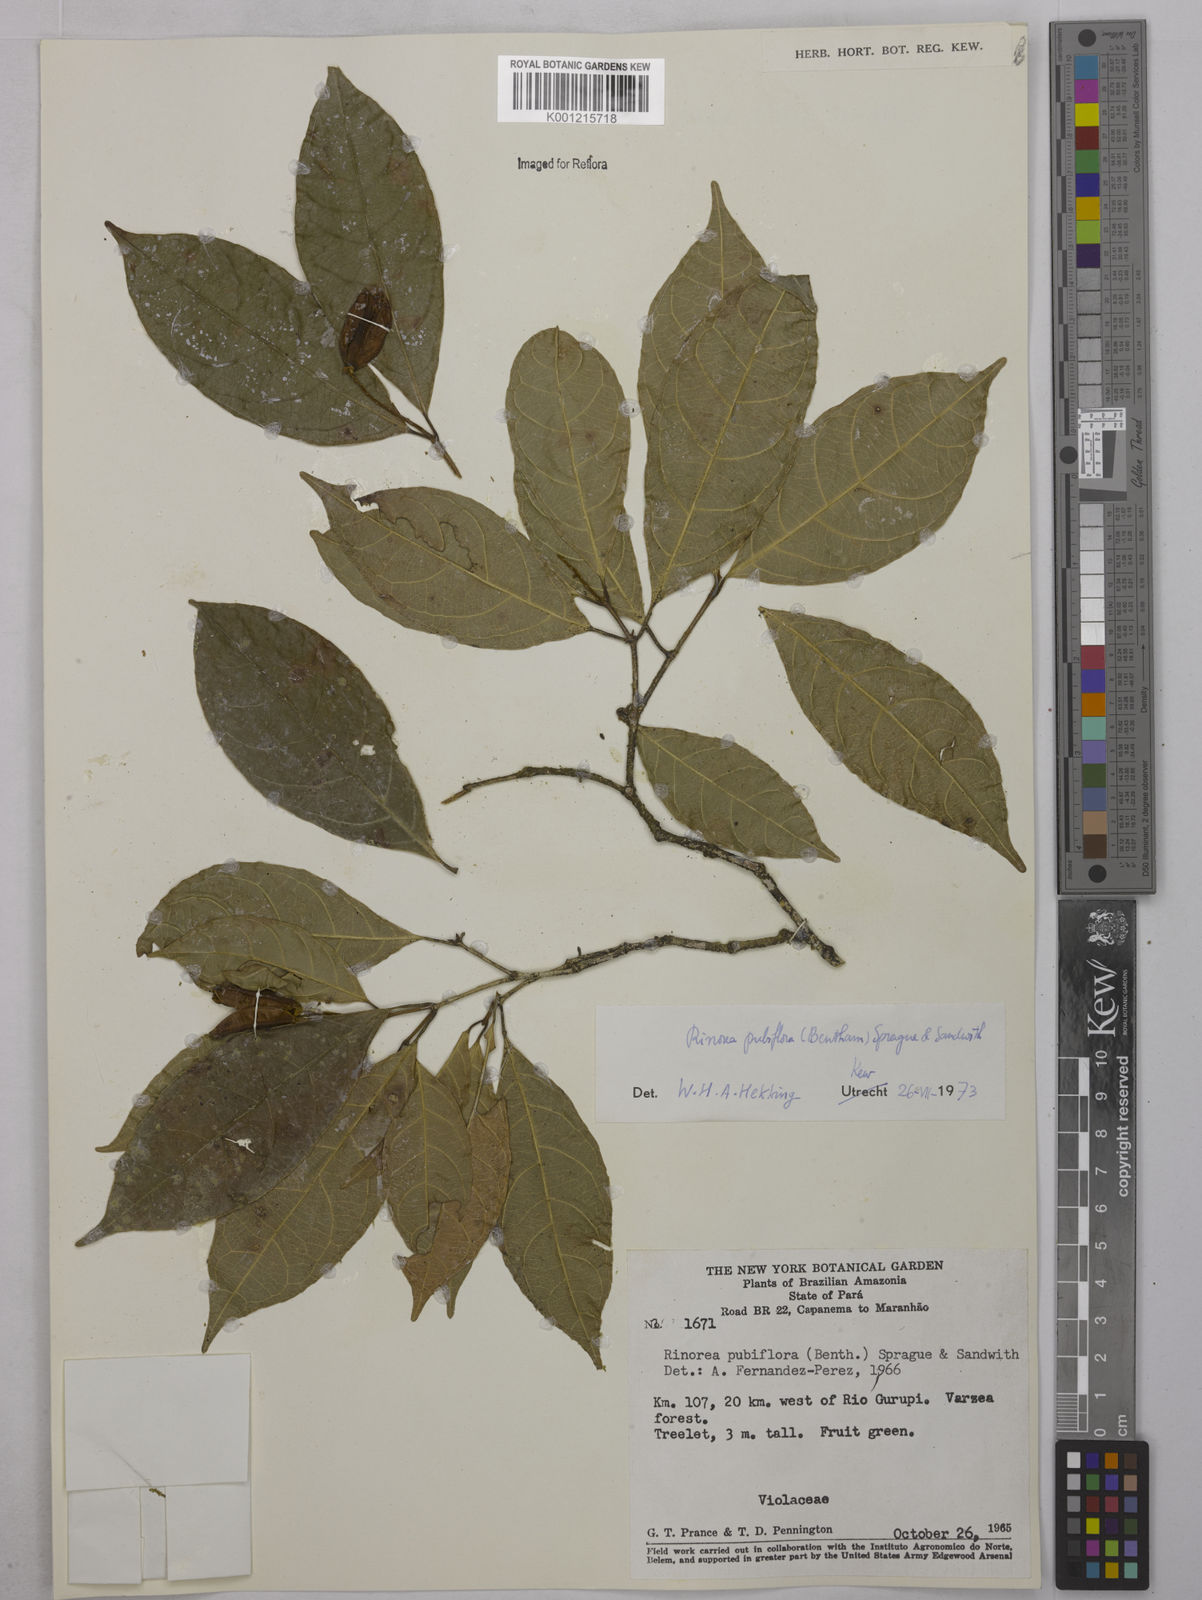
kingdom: Plantae
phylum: Tracheophyta
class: Magnoliopsida
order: Malpighiales
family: Violaceae
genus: Rinorea
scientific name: Rinorea pubiflora
